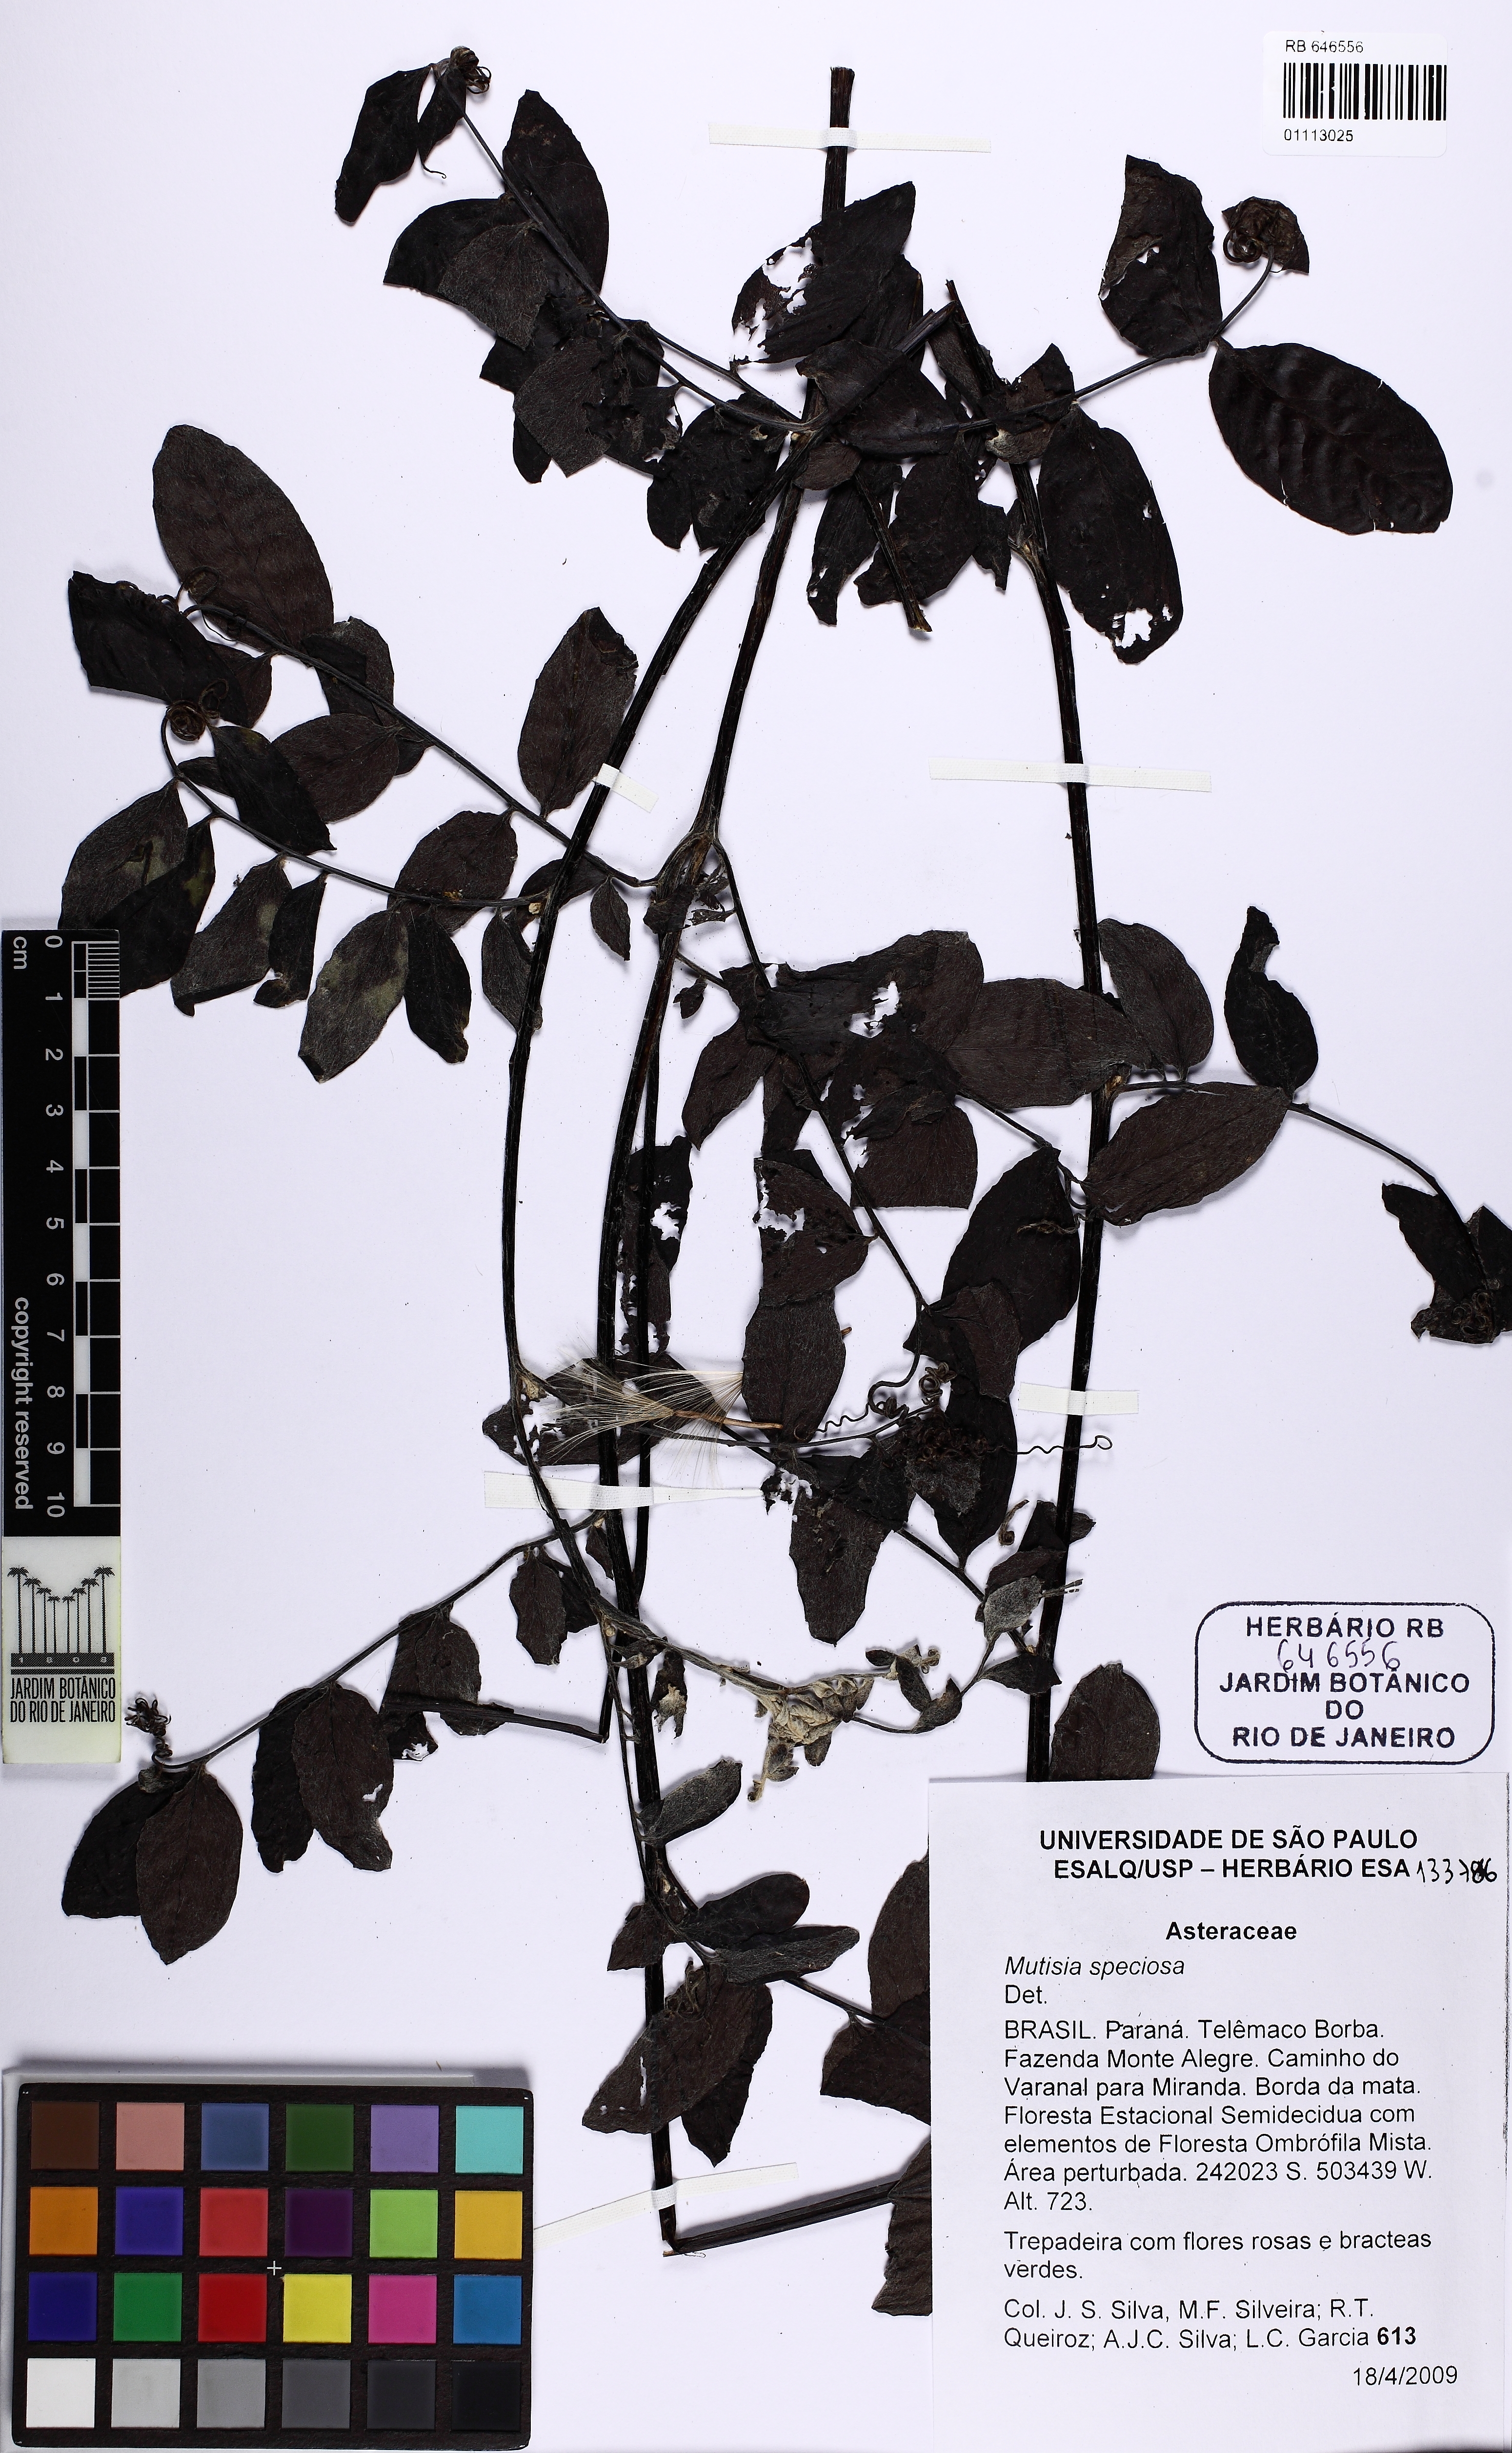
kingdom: Plantae
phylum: Tracheophyta
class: Magnoliopsida
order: Asterales
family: Asteraceae
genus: Mutisia
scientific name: Mutisia speciosa
